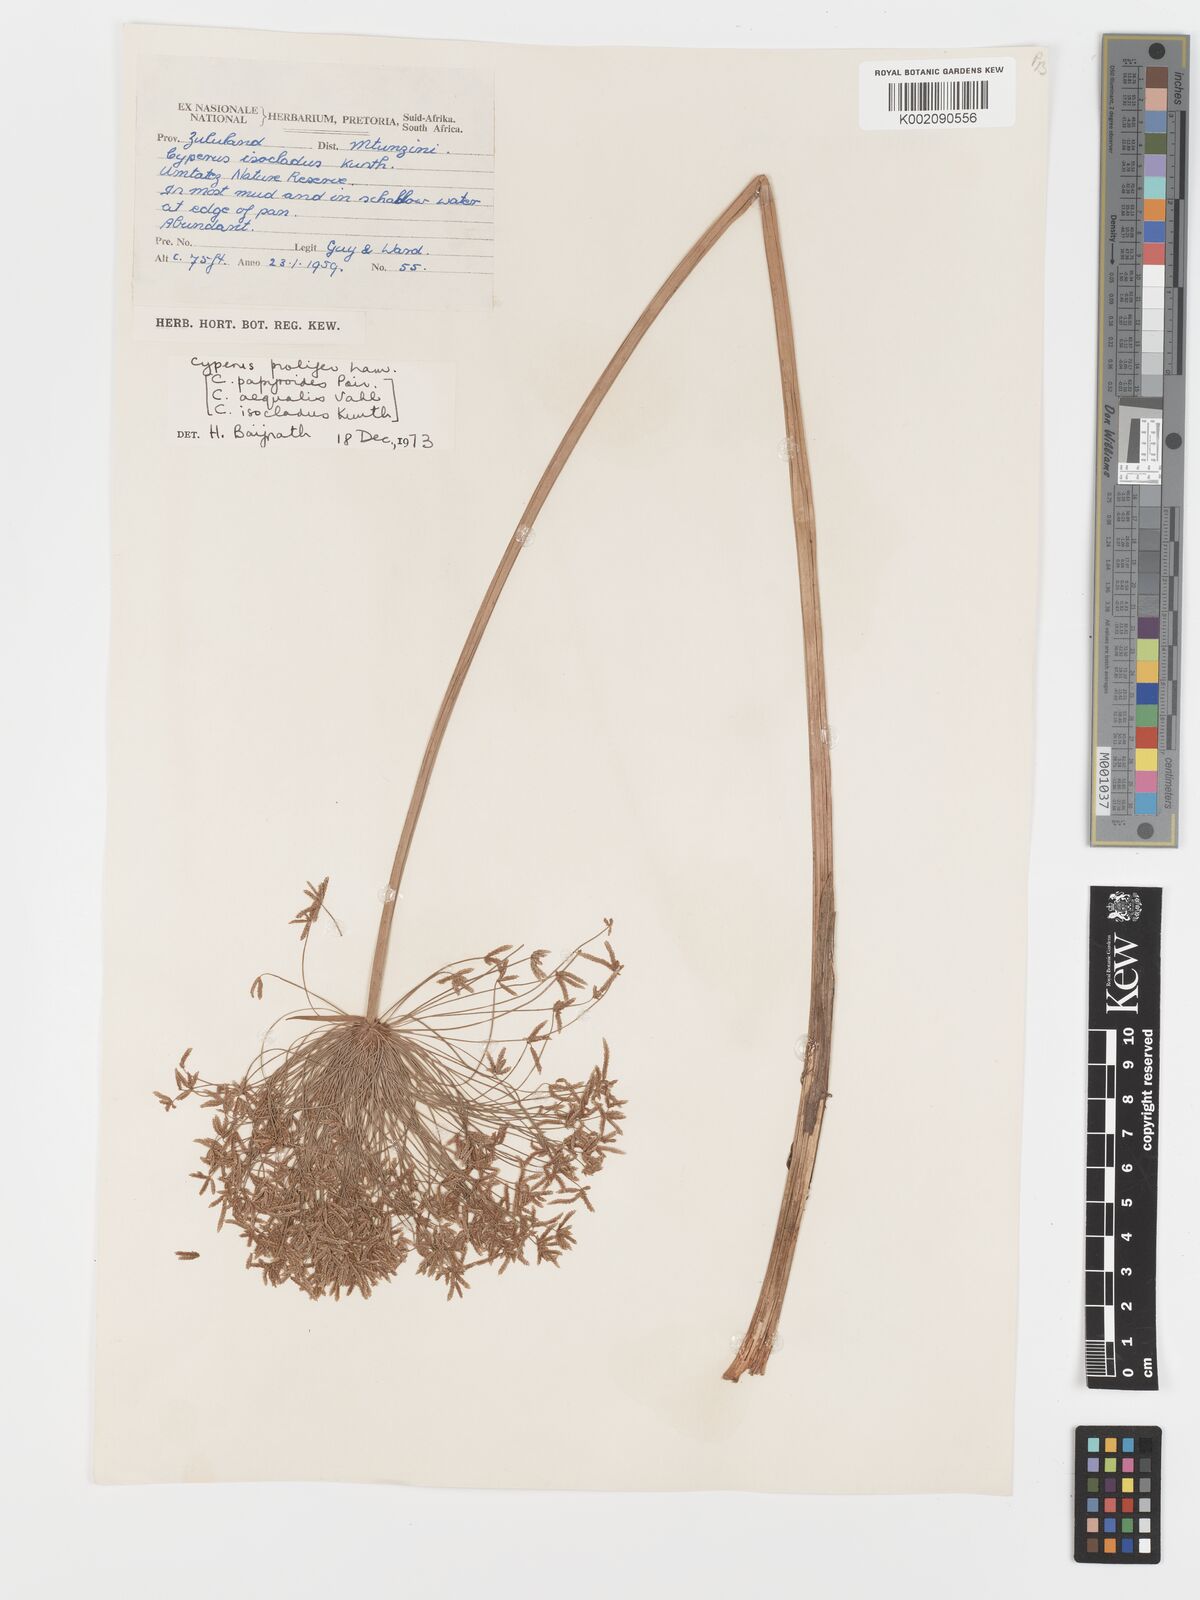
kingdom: Plantae
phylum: Tracheophyta
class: Liliopsida
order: Poales
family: Cyperaceae
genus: Cyperus
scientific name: Cyperus prolifer
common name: Miniature flatsedge
